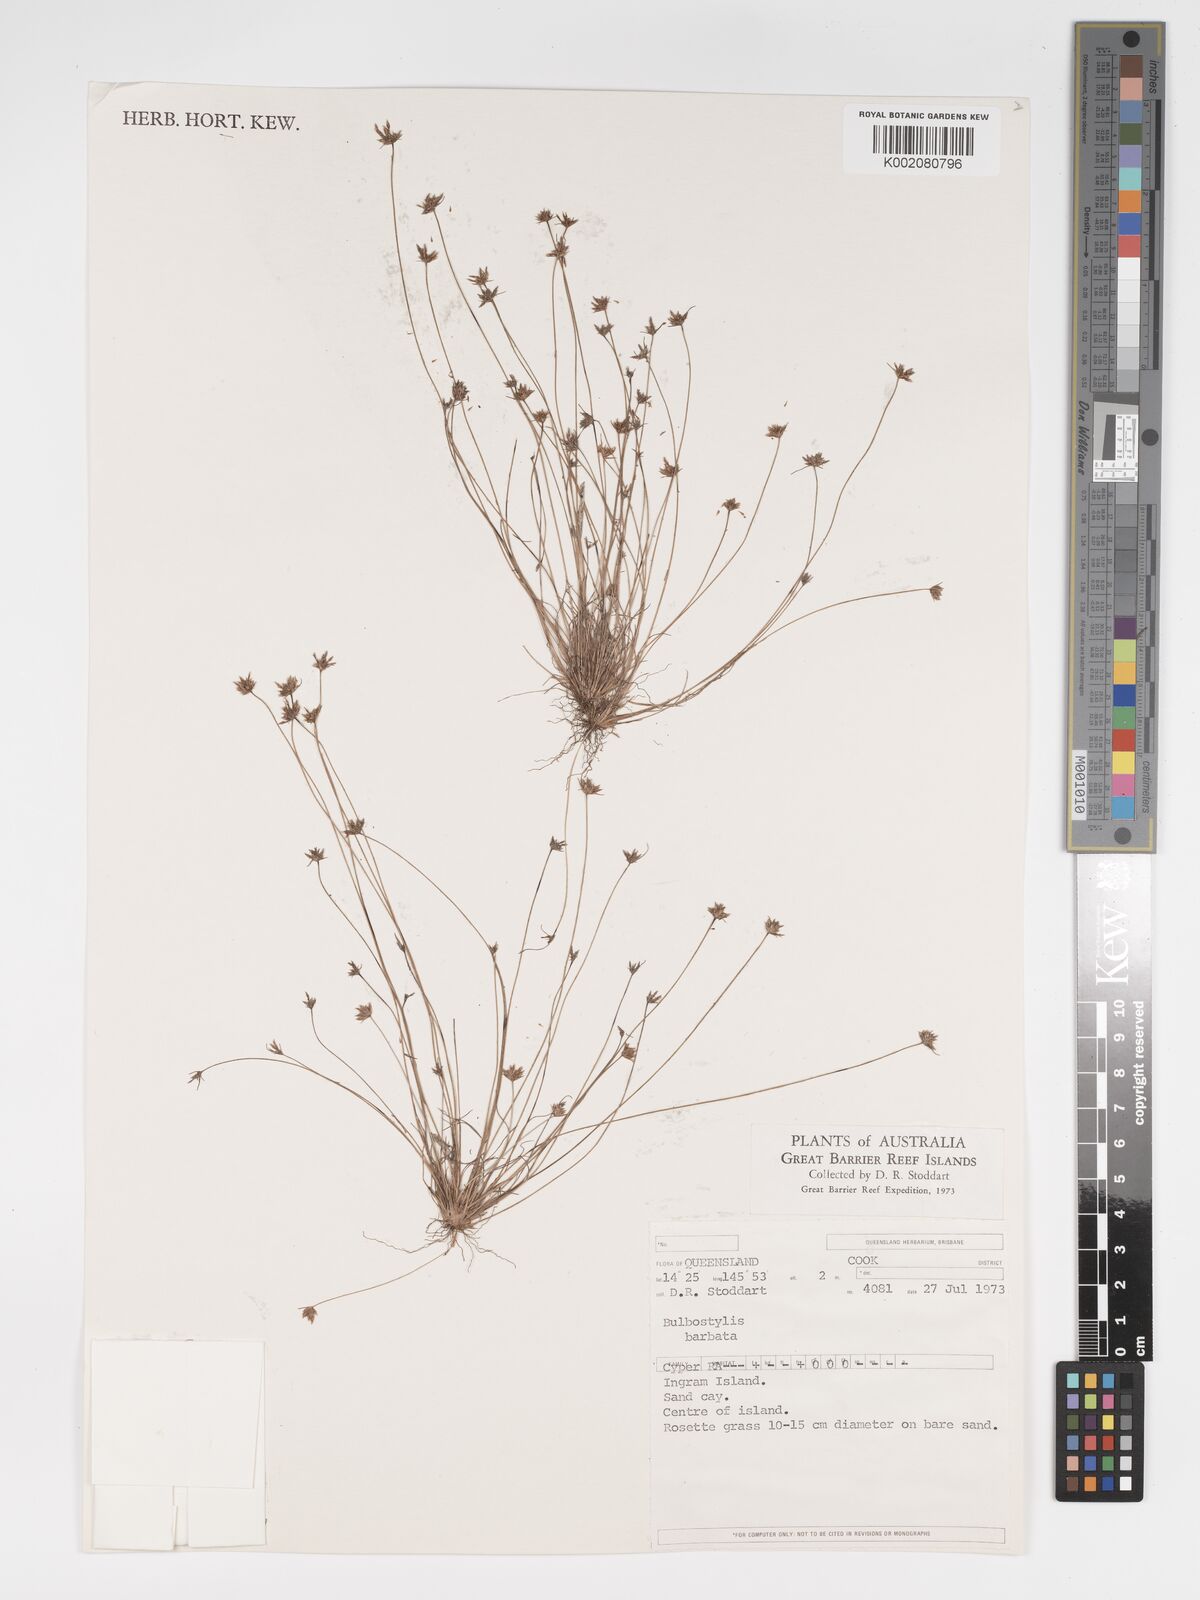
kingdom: Plantae
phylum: Tracheophyta
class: Liliopsida
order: Poales
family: Cyperaceae
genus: Bulbostylis
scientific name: Bulbostylis barbata
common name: Watergrass
